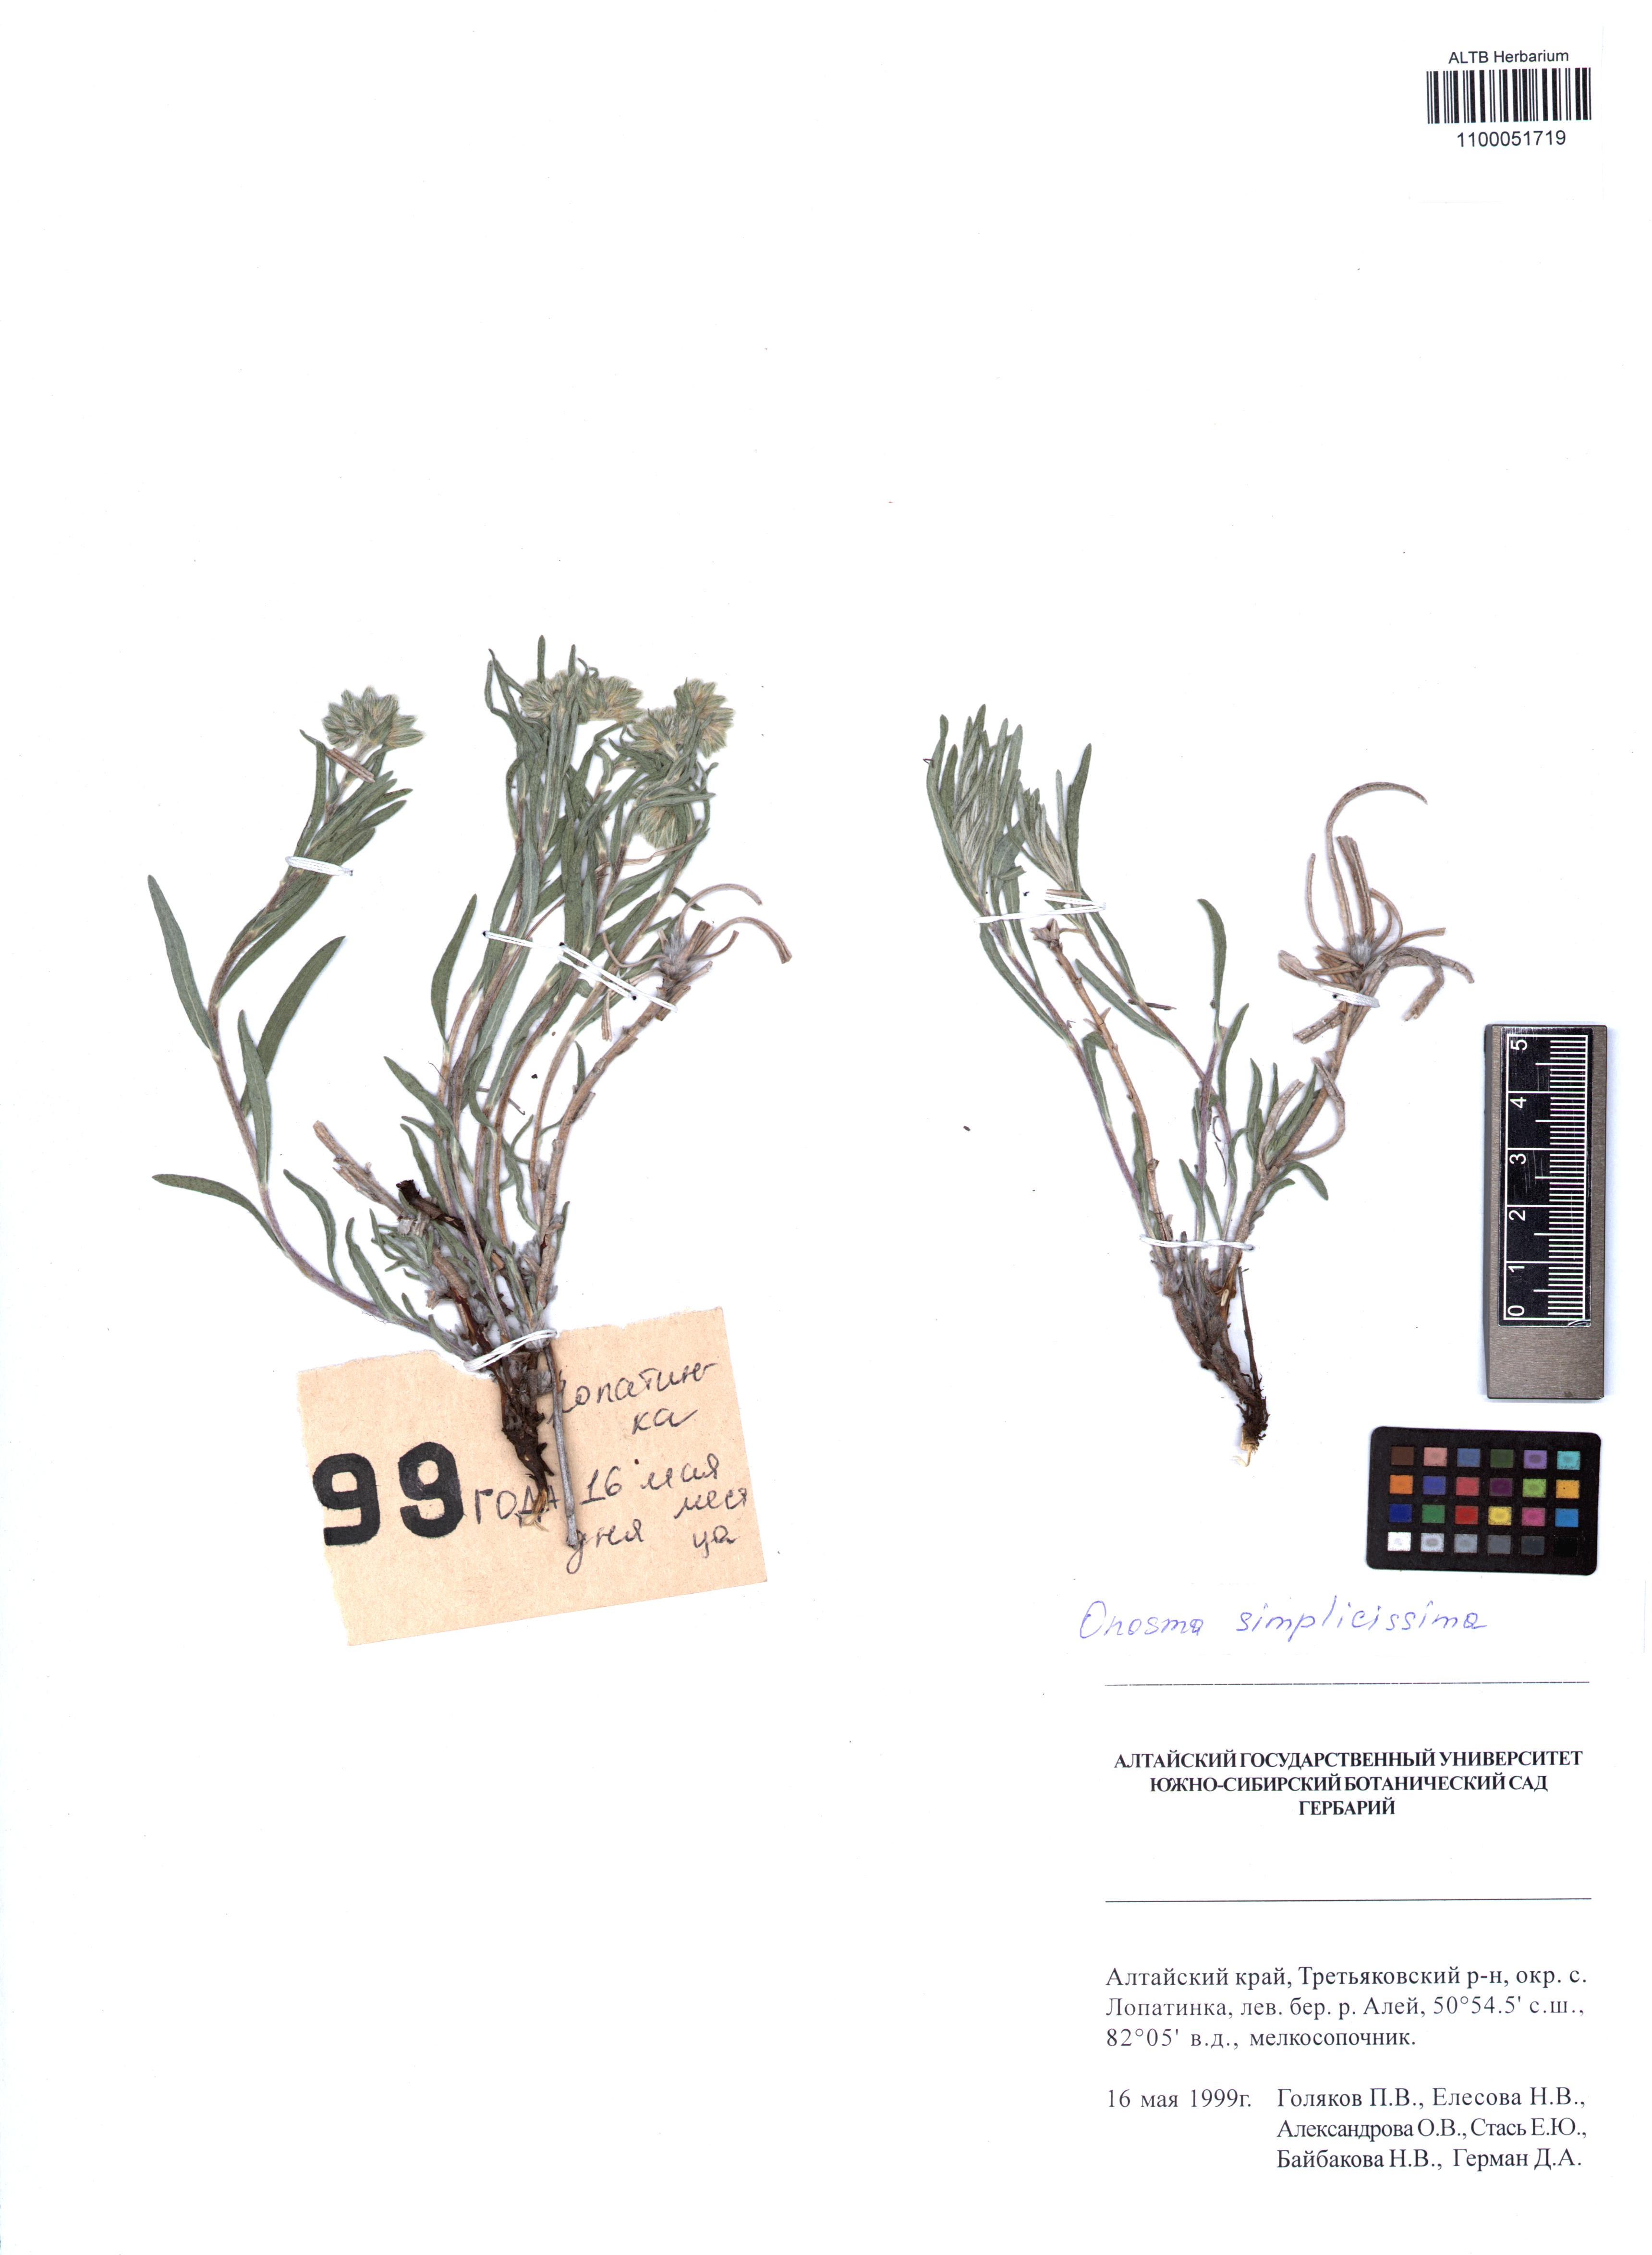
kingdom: Plantae
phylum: Tracheophyta
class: Magnoliopsida
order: Boraginales
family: Boraginaceae
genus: Onosma
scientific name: Onosma simplicissima
